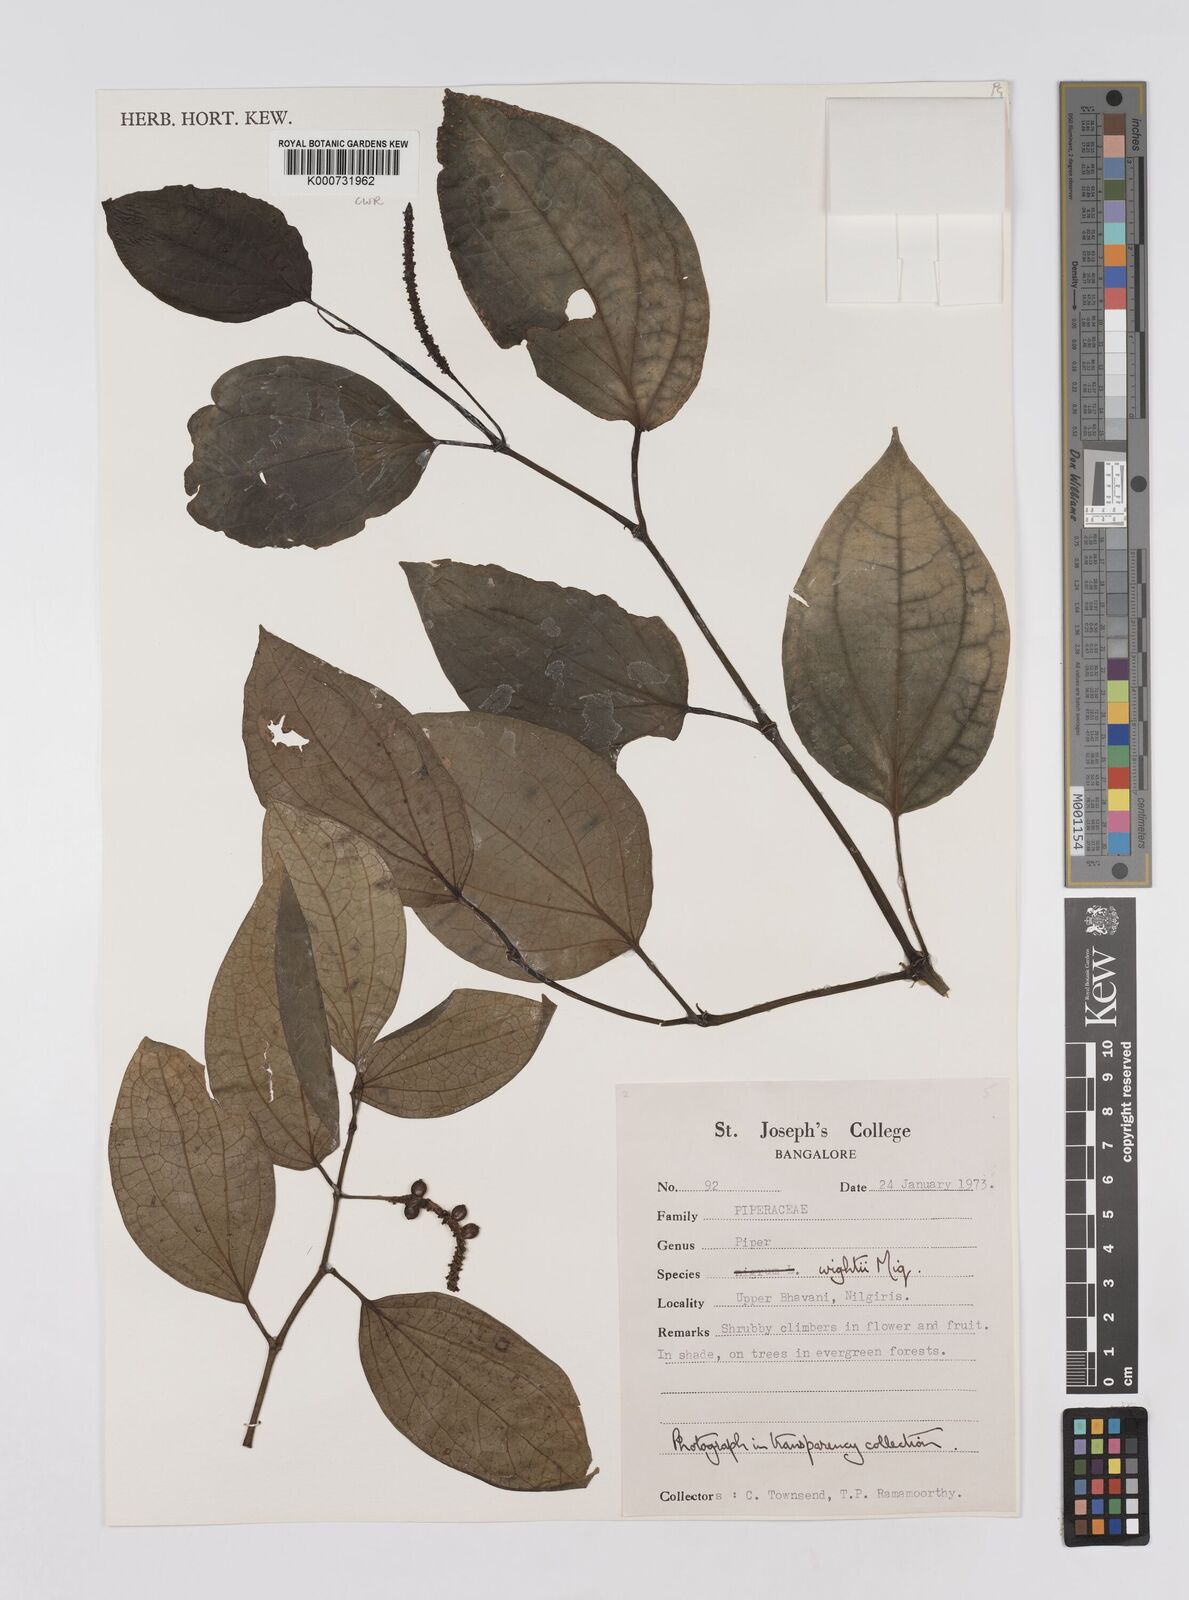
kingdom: Plantae
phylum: Tracheophyta
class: Magnoliopsida
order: Piperales
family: Piperaceae
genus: Piper
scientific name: Piper
